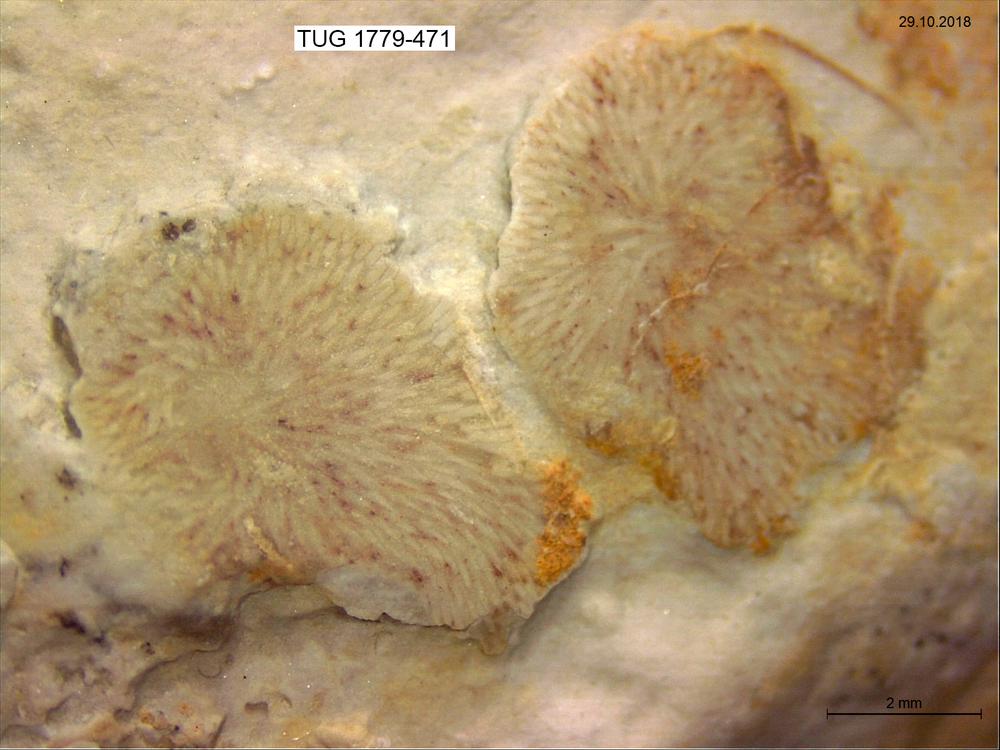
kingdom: Animalia
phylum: Bryozoa
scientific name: Bryozoa
